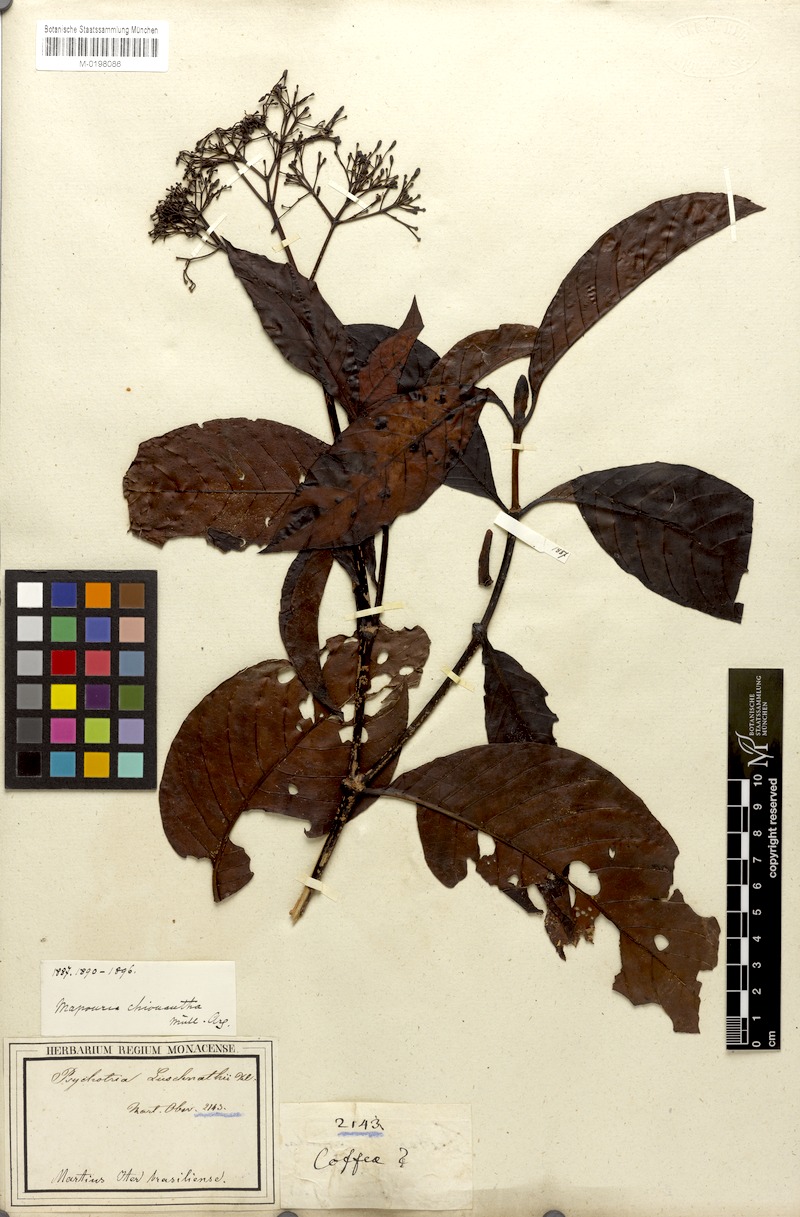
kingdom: Plantae
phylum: Tracheophyta
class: Magnoliopsida
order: Gentianales
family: Rubiaceae
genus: Psychotria
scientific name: Psychotria pedunculosa
